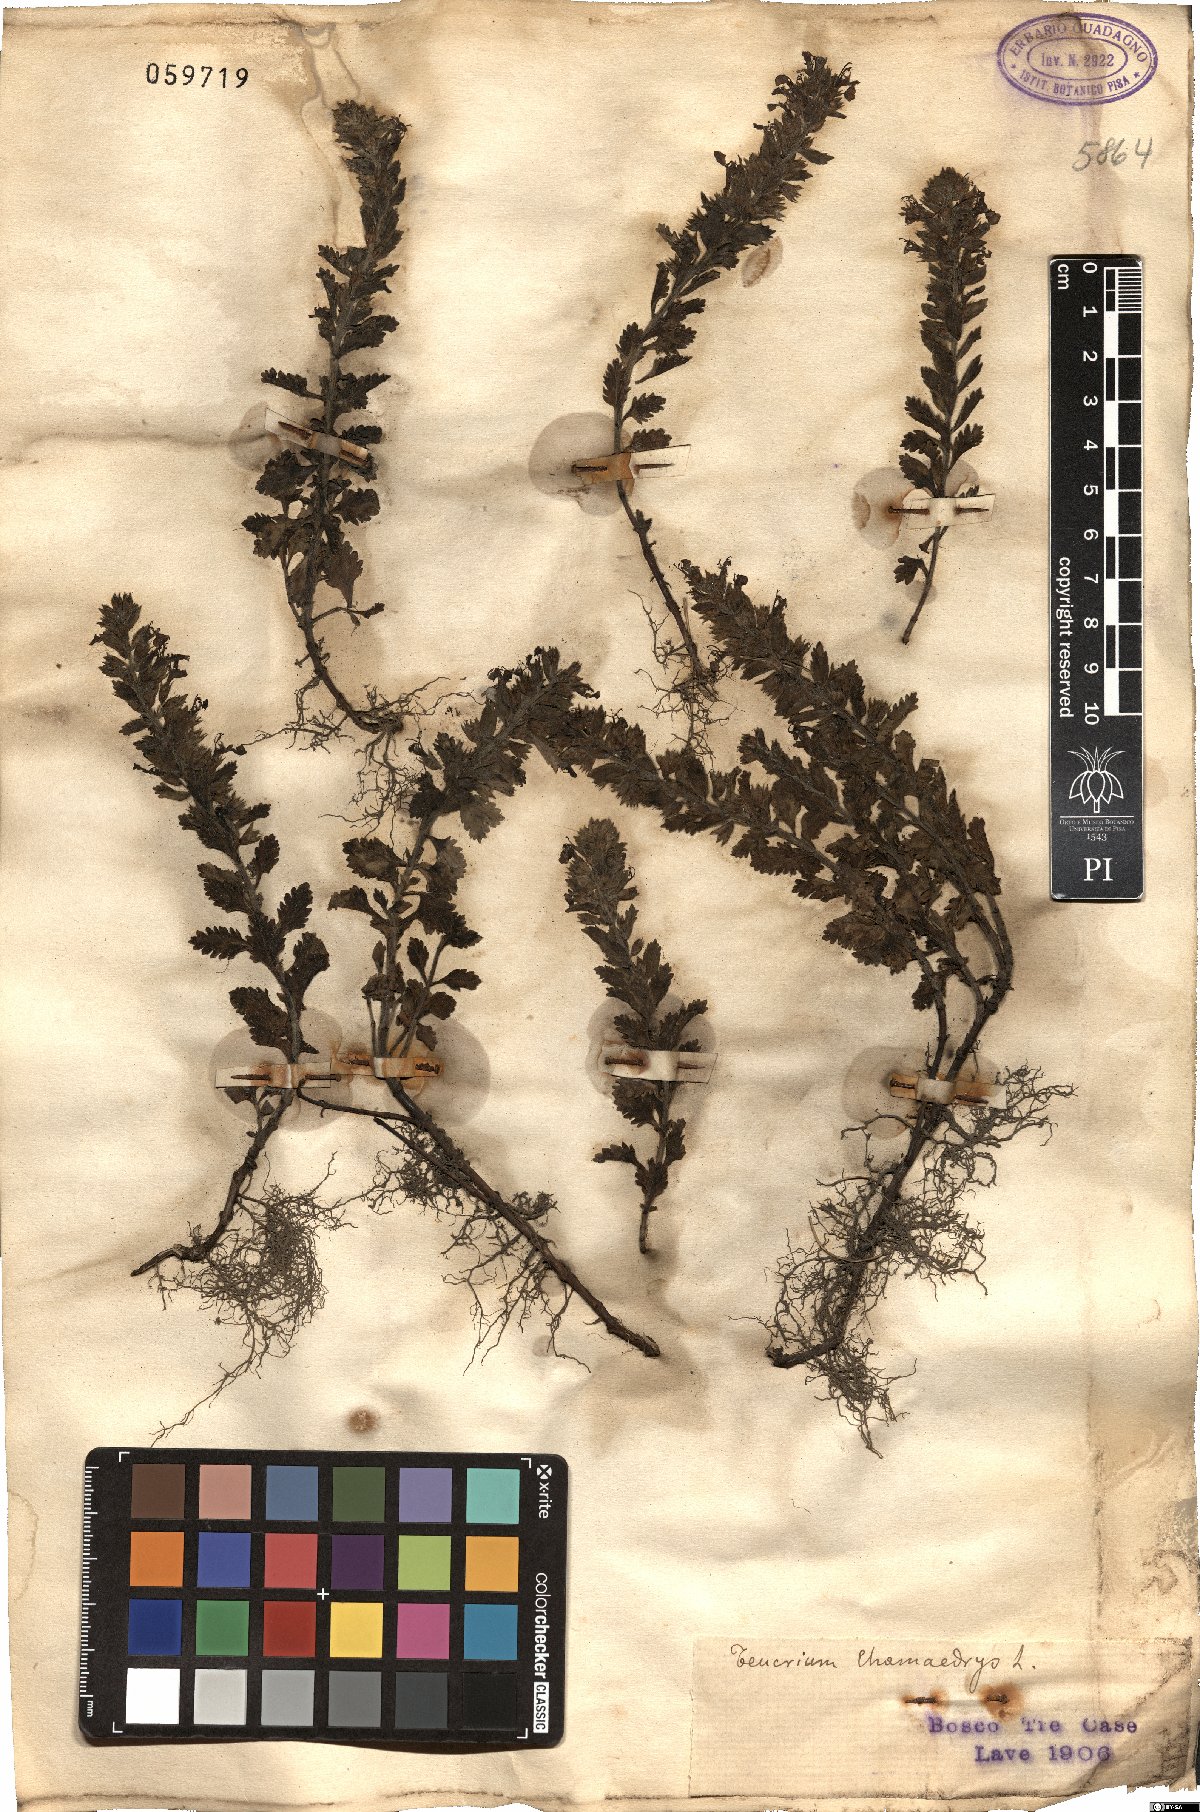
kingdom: Plantae
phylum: Tracheophyta
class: Magnoliopsida
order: Lamiales
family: Lamiaceae
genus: Teucrium
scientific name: Teucrium chamaedrys
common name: Wall germander
